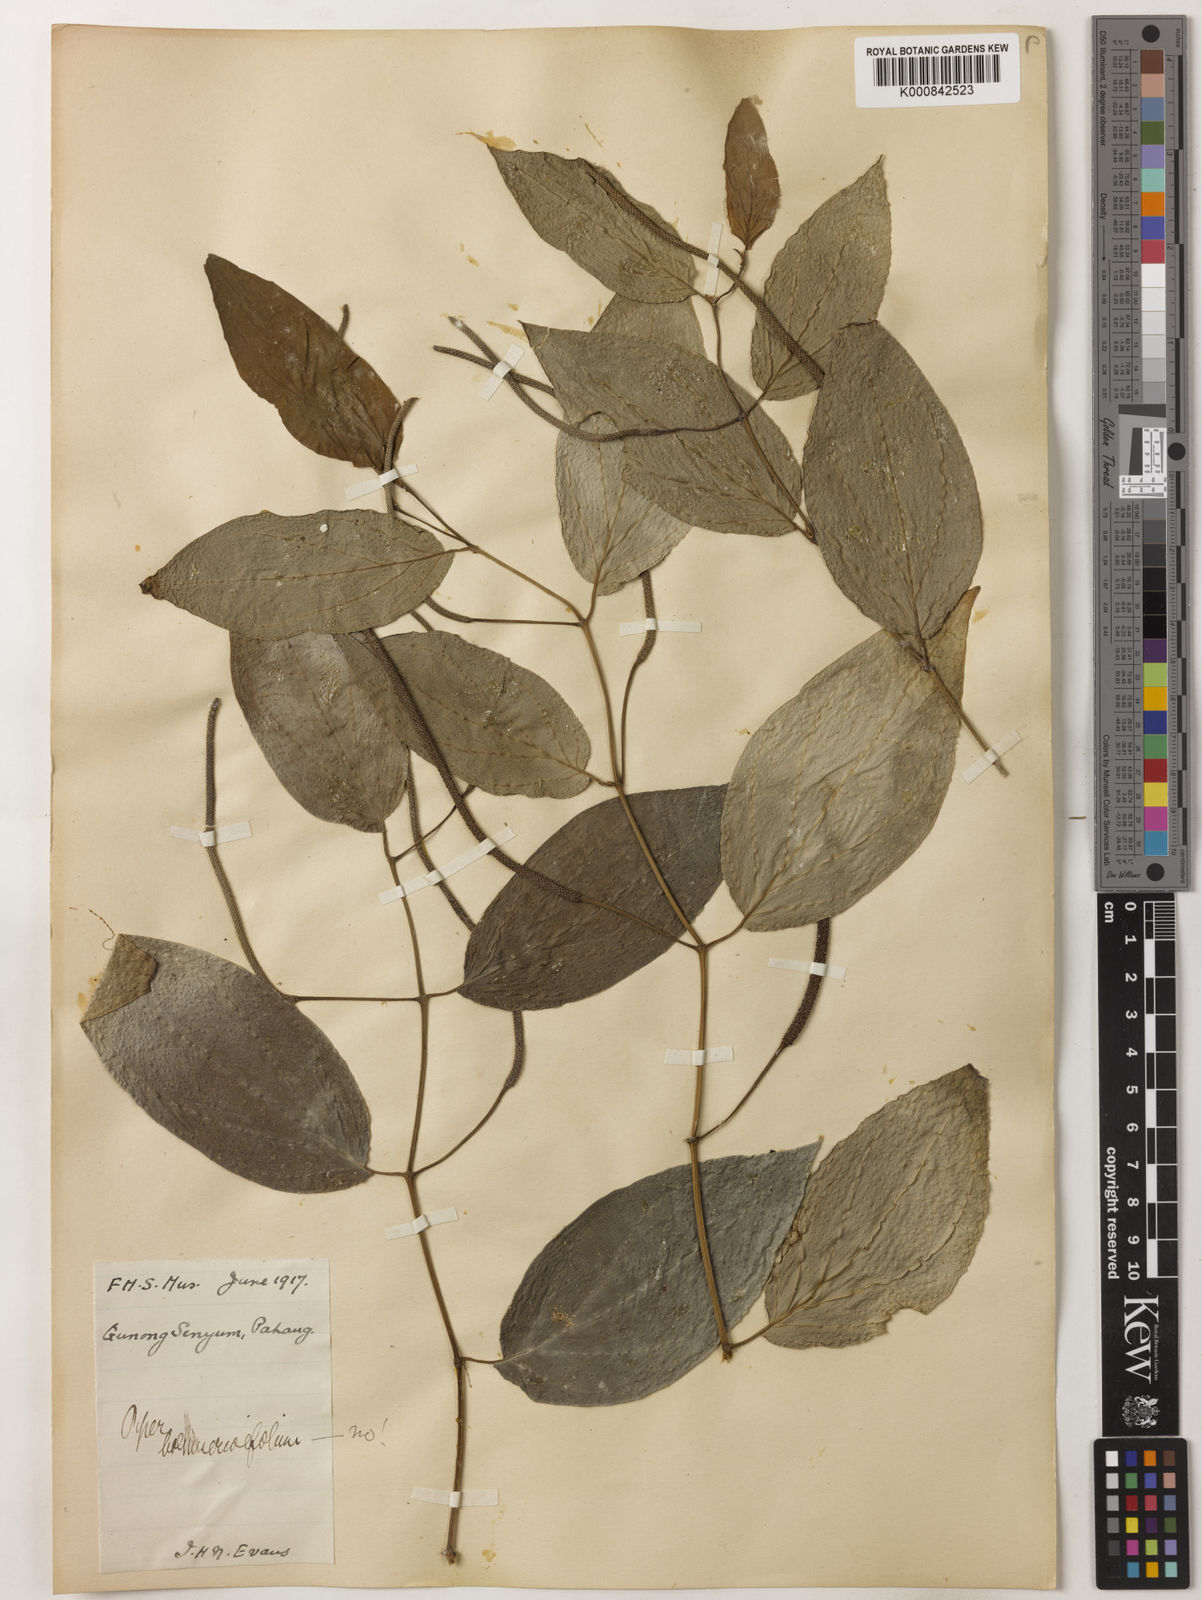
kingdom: Plantae
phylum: Tracheophyta
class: Magnoliopsida
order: Piperales
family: Piperaceae
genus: Piper
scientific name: Piper
